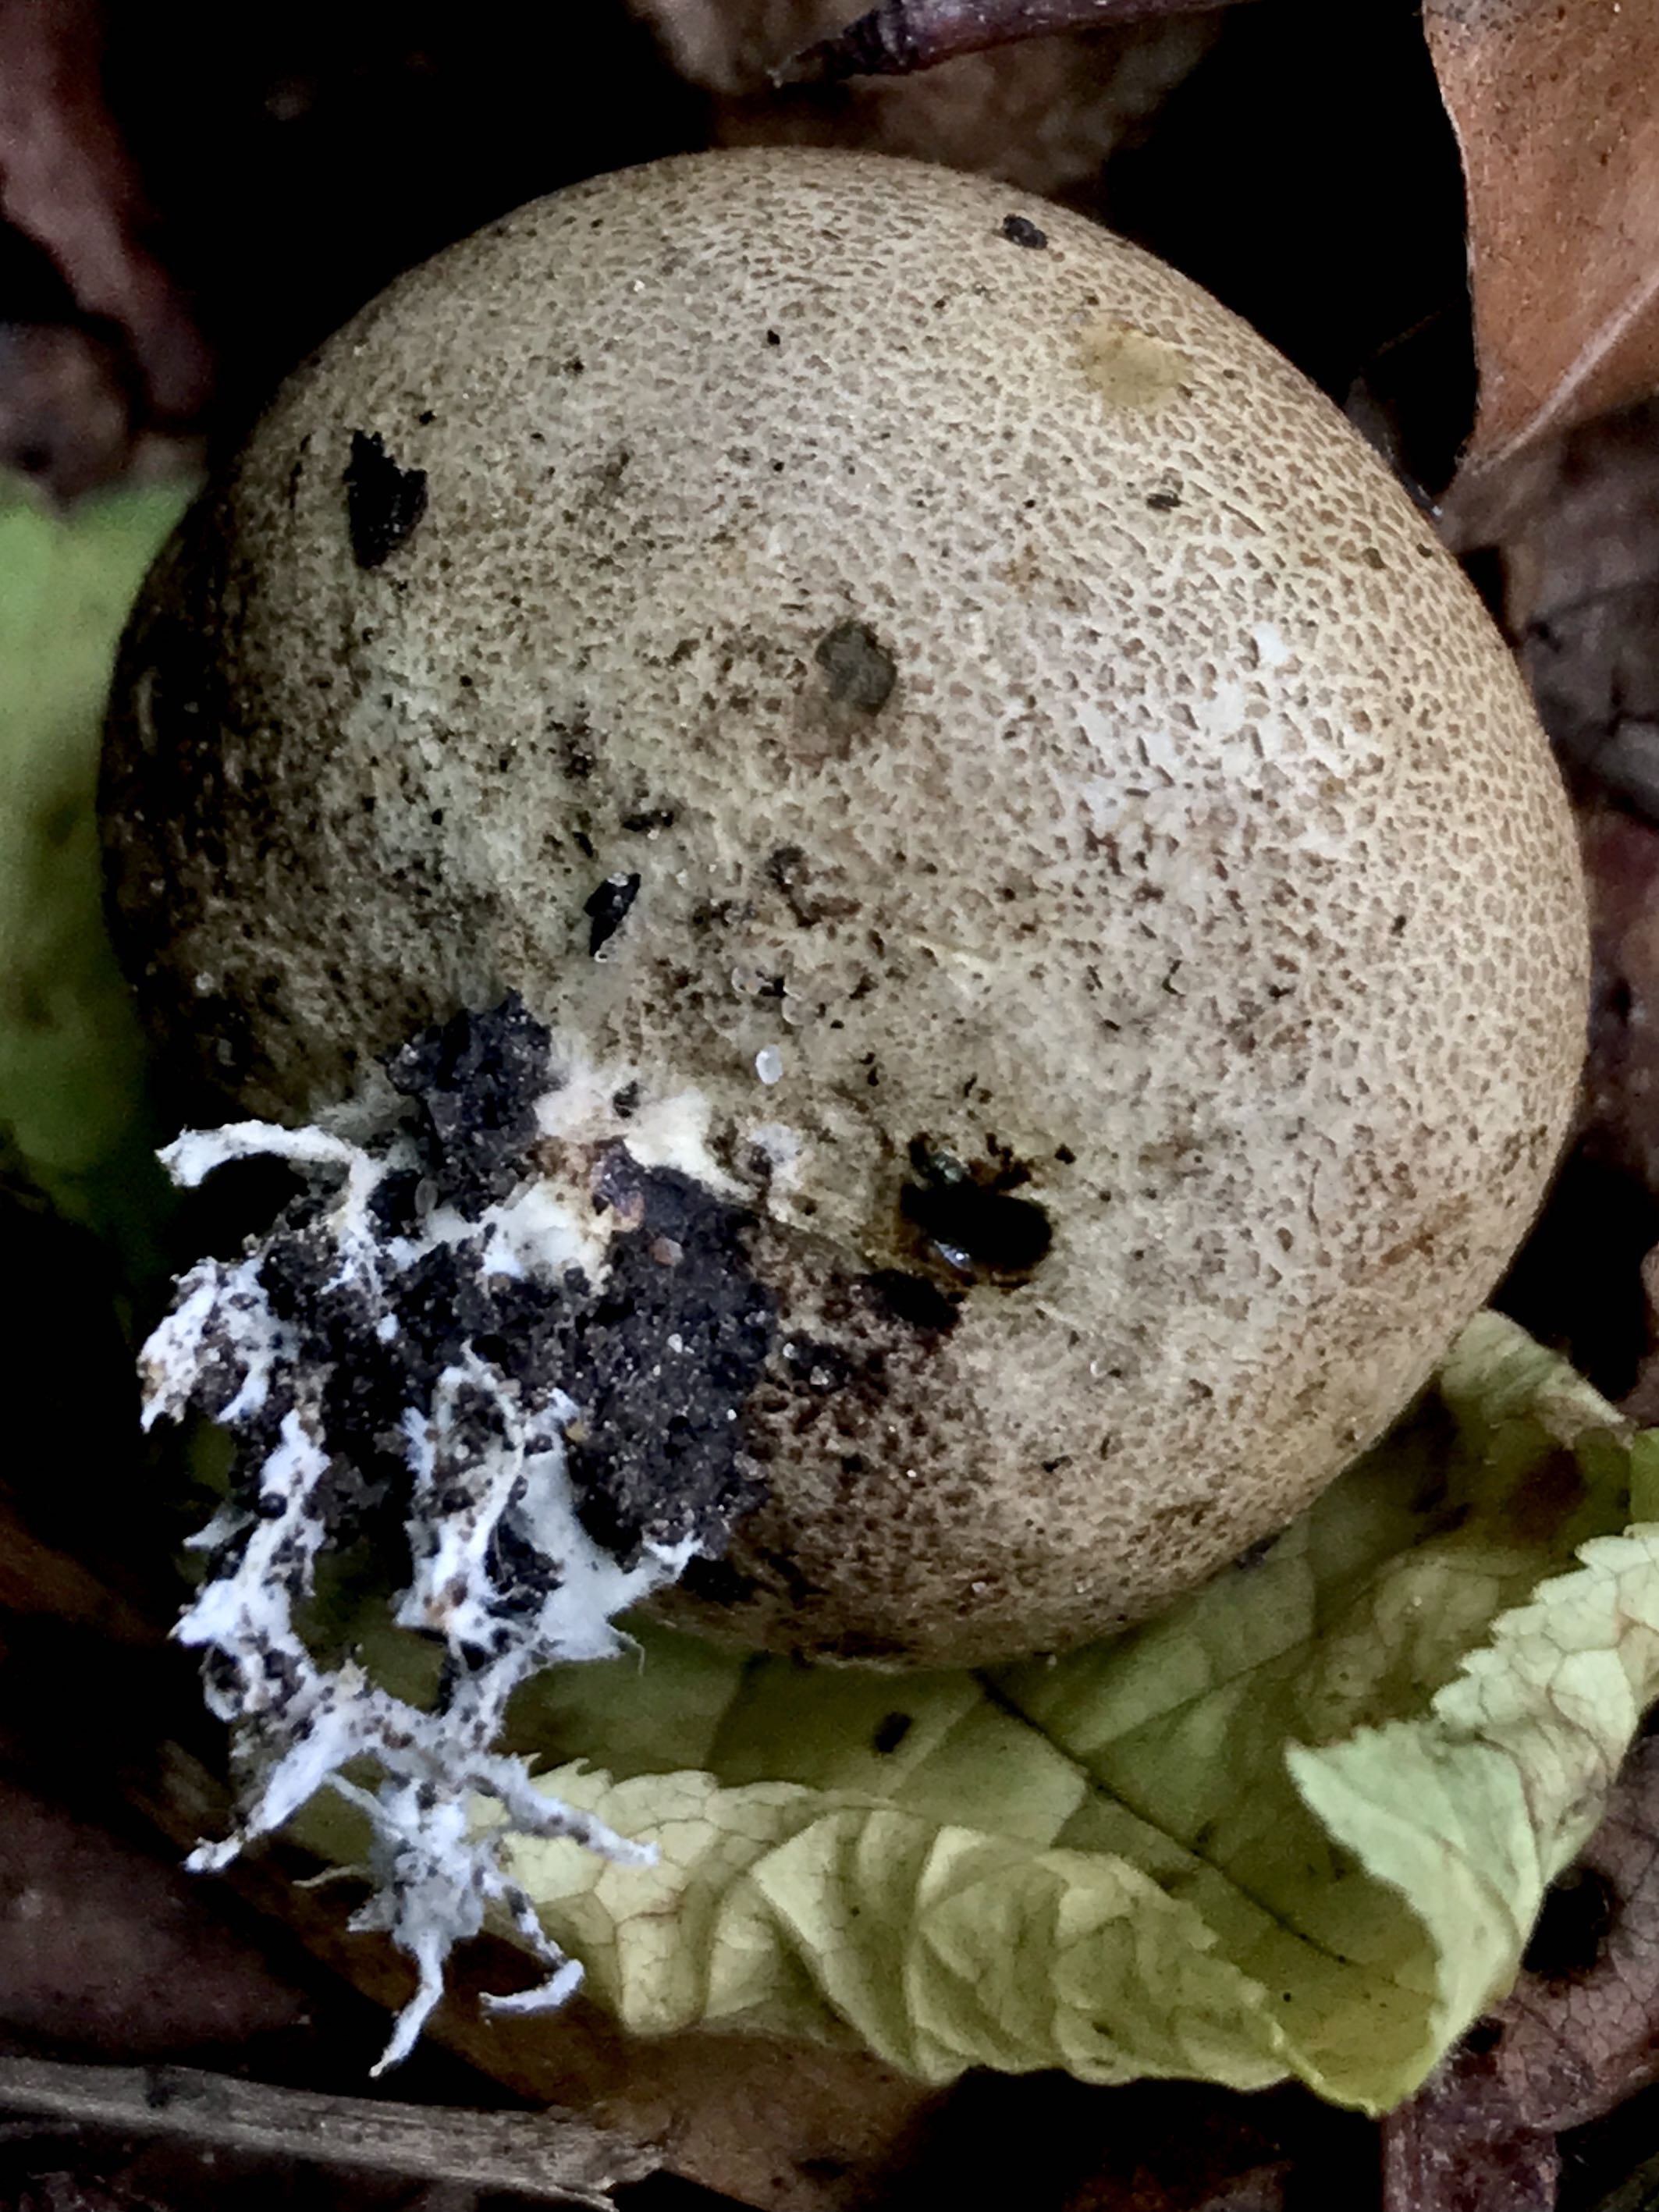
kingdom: Fungi
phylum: Basidiomycota
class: Agaricomycetes
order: Boletales
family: Sclerodermataceae
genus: Scleroderma
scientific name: Scleroderma verrucosum
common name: stilket bruskbold
